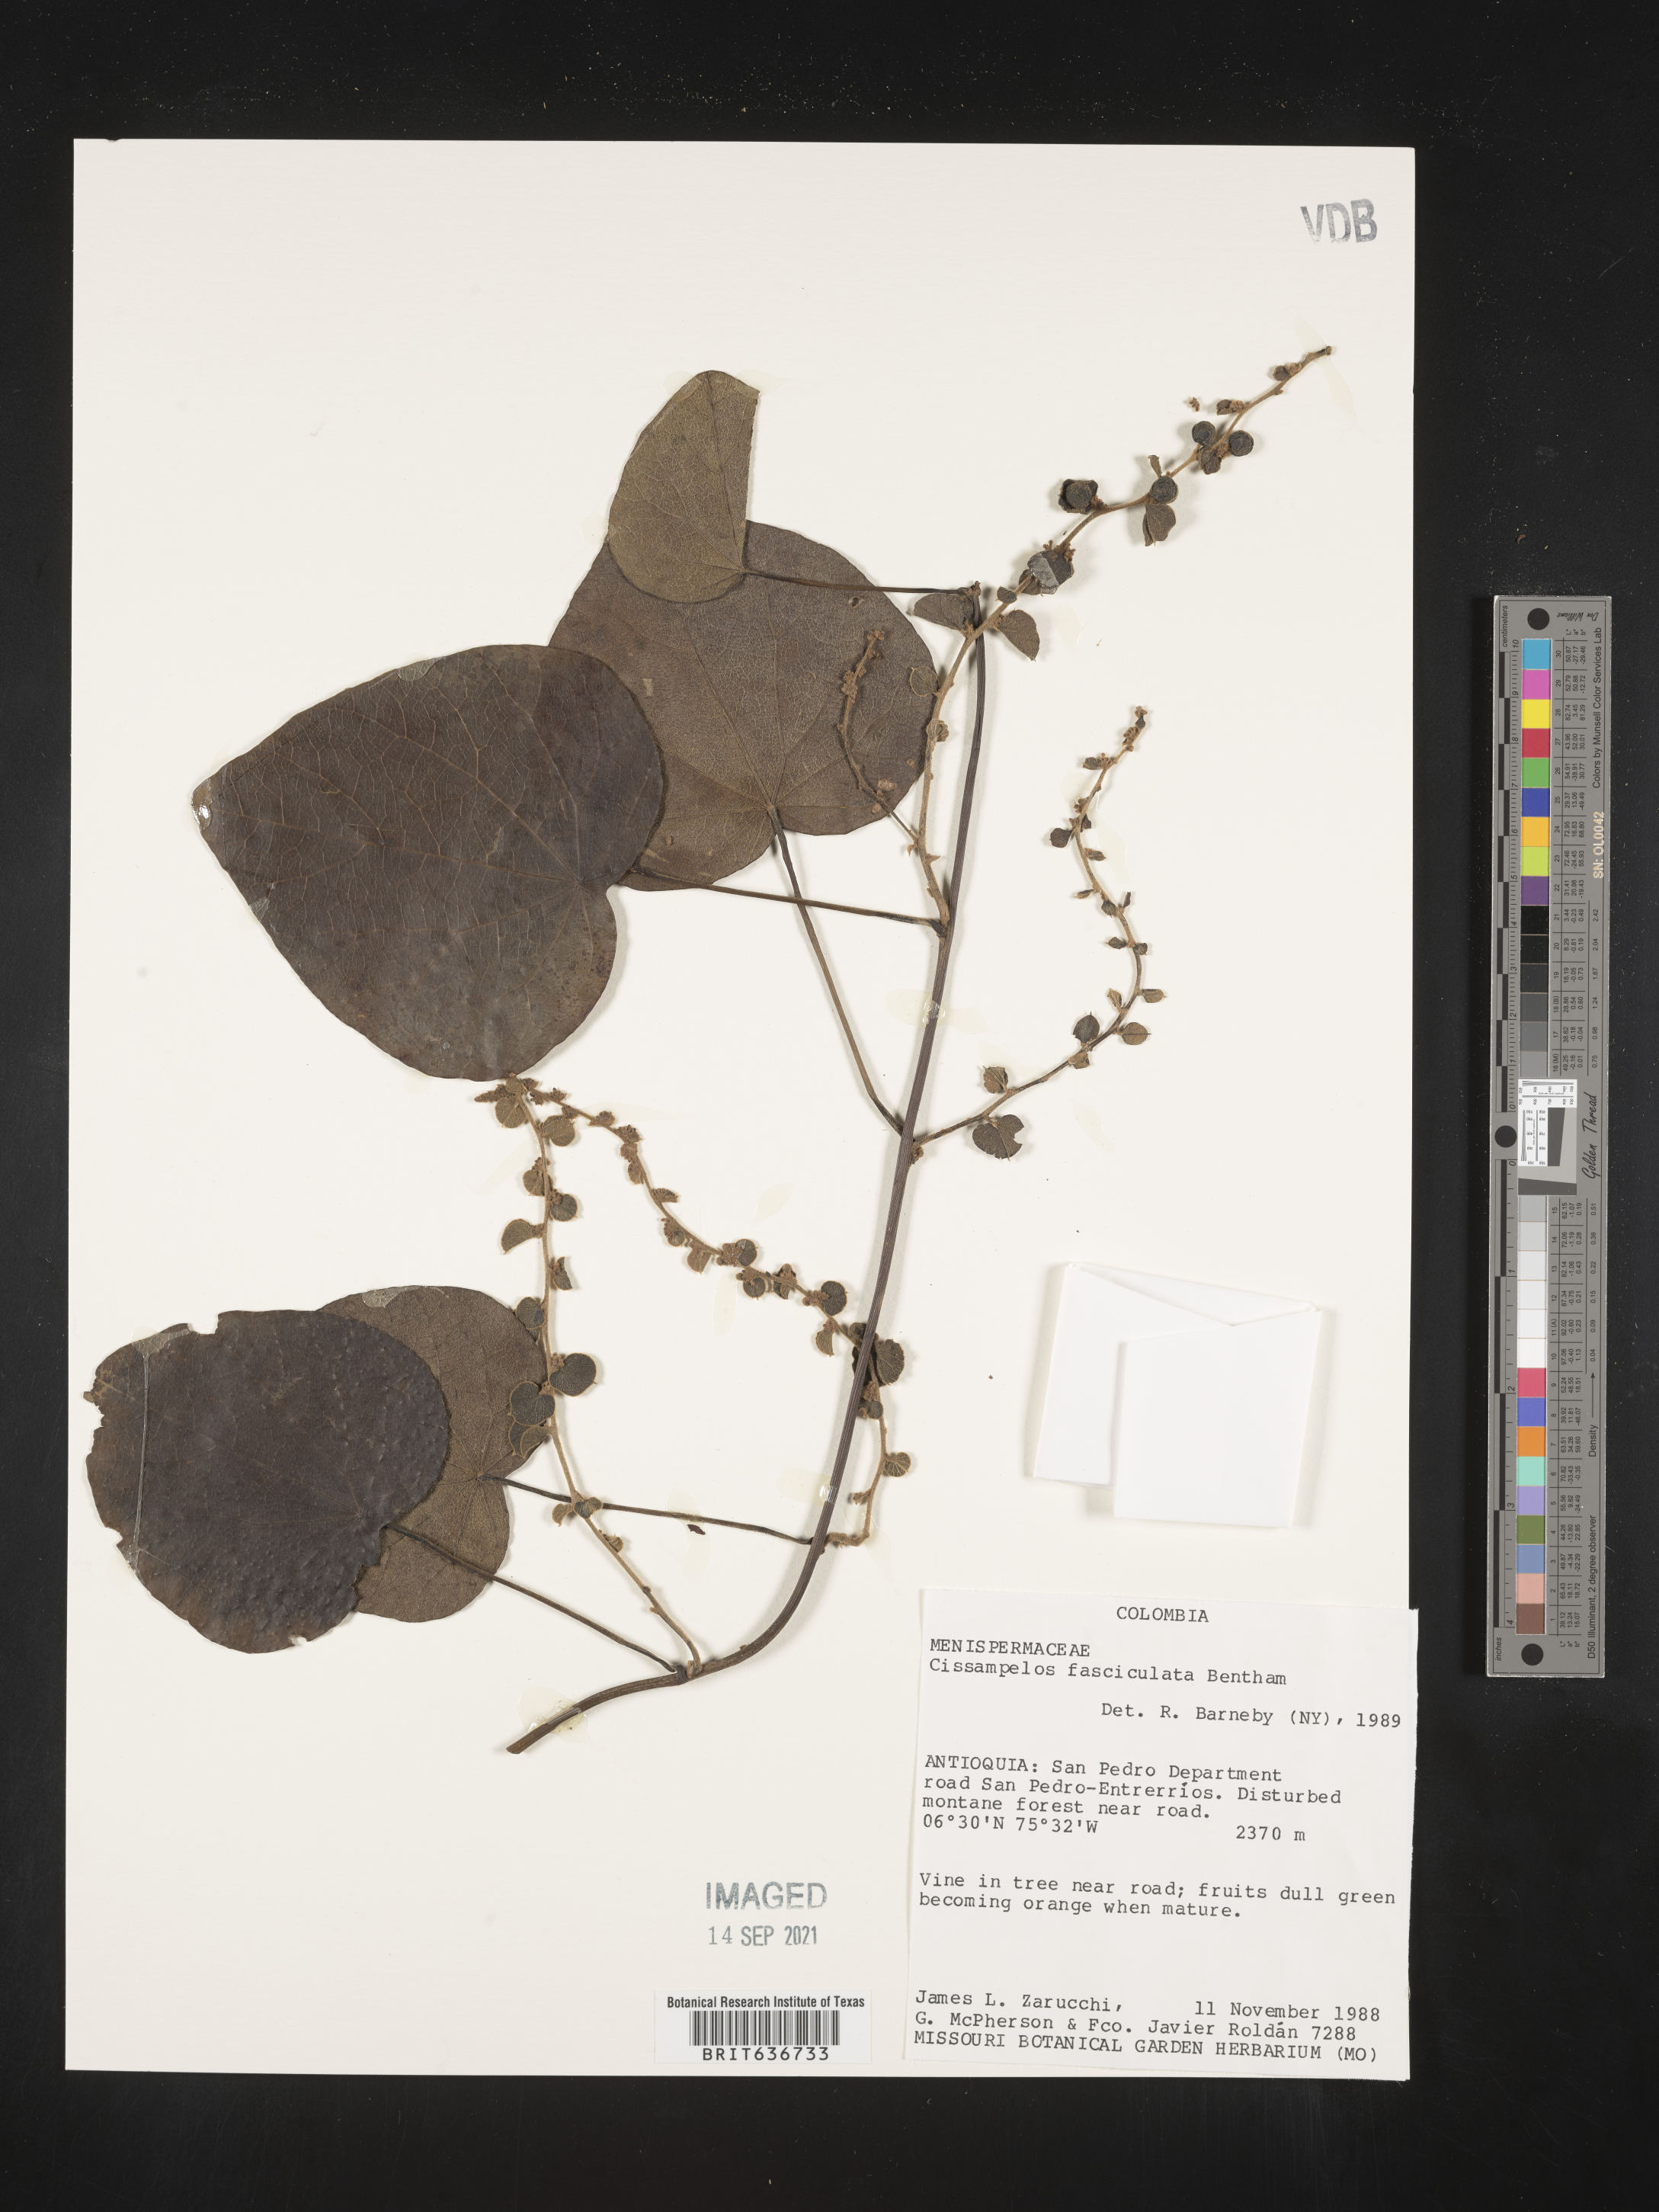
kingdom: Plantae
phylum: Tracheophyta
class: Magnoliopsida
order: Ranunculales
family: Menispermaceae
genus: Cissampelos
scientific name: Cissampelos
